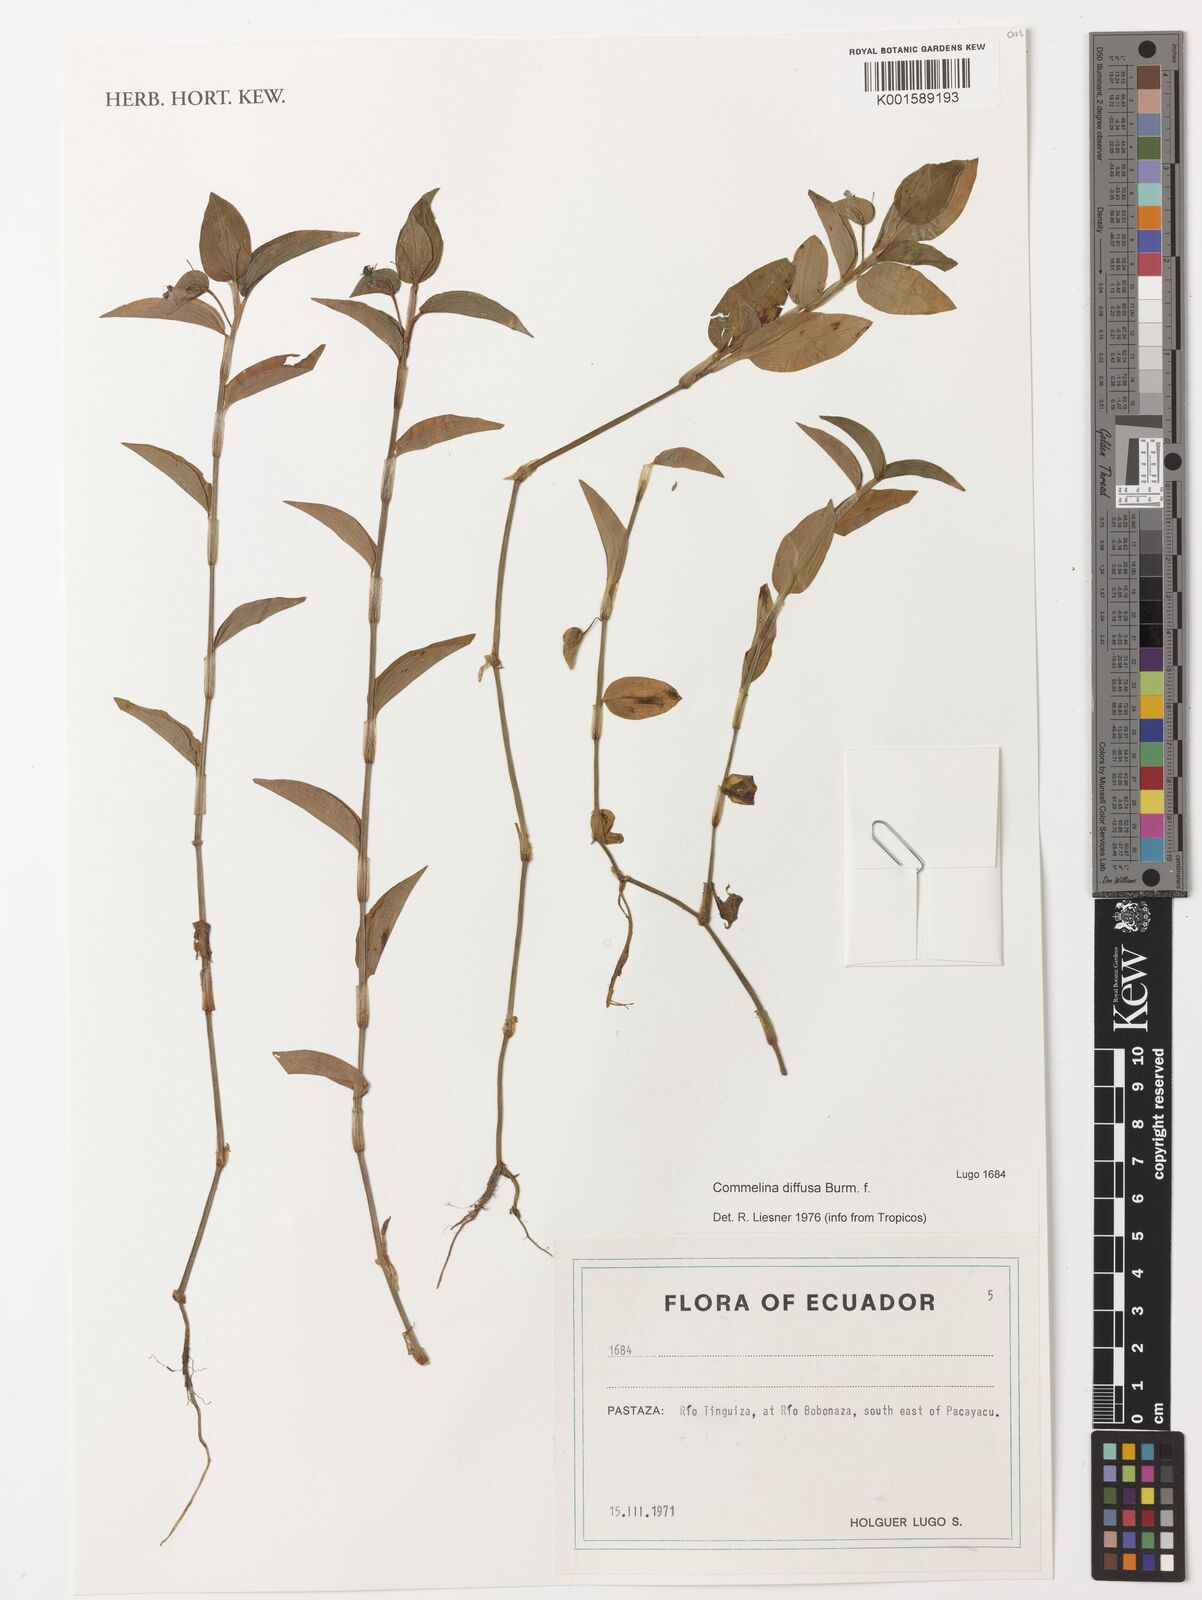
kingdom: Plantae
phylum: Tracheophyta
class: Liliopsida
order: Commelinales
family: Commelinaceae
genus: Commelina
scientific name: Commelina diffusa
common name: Climbing dayflower
